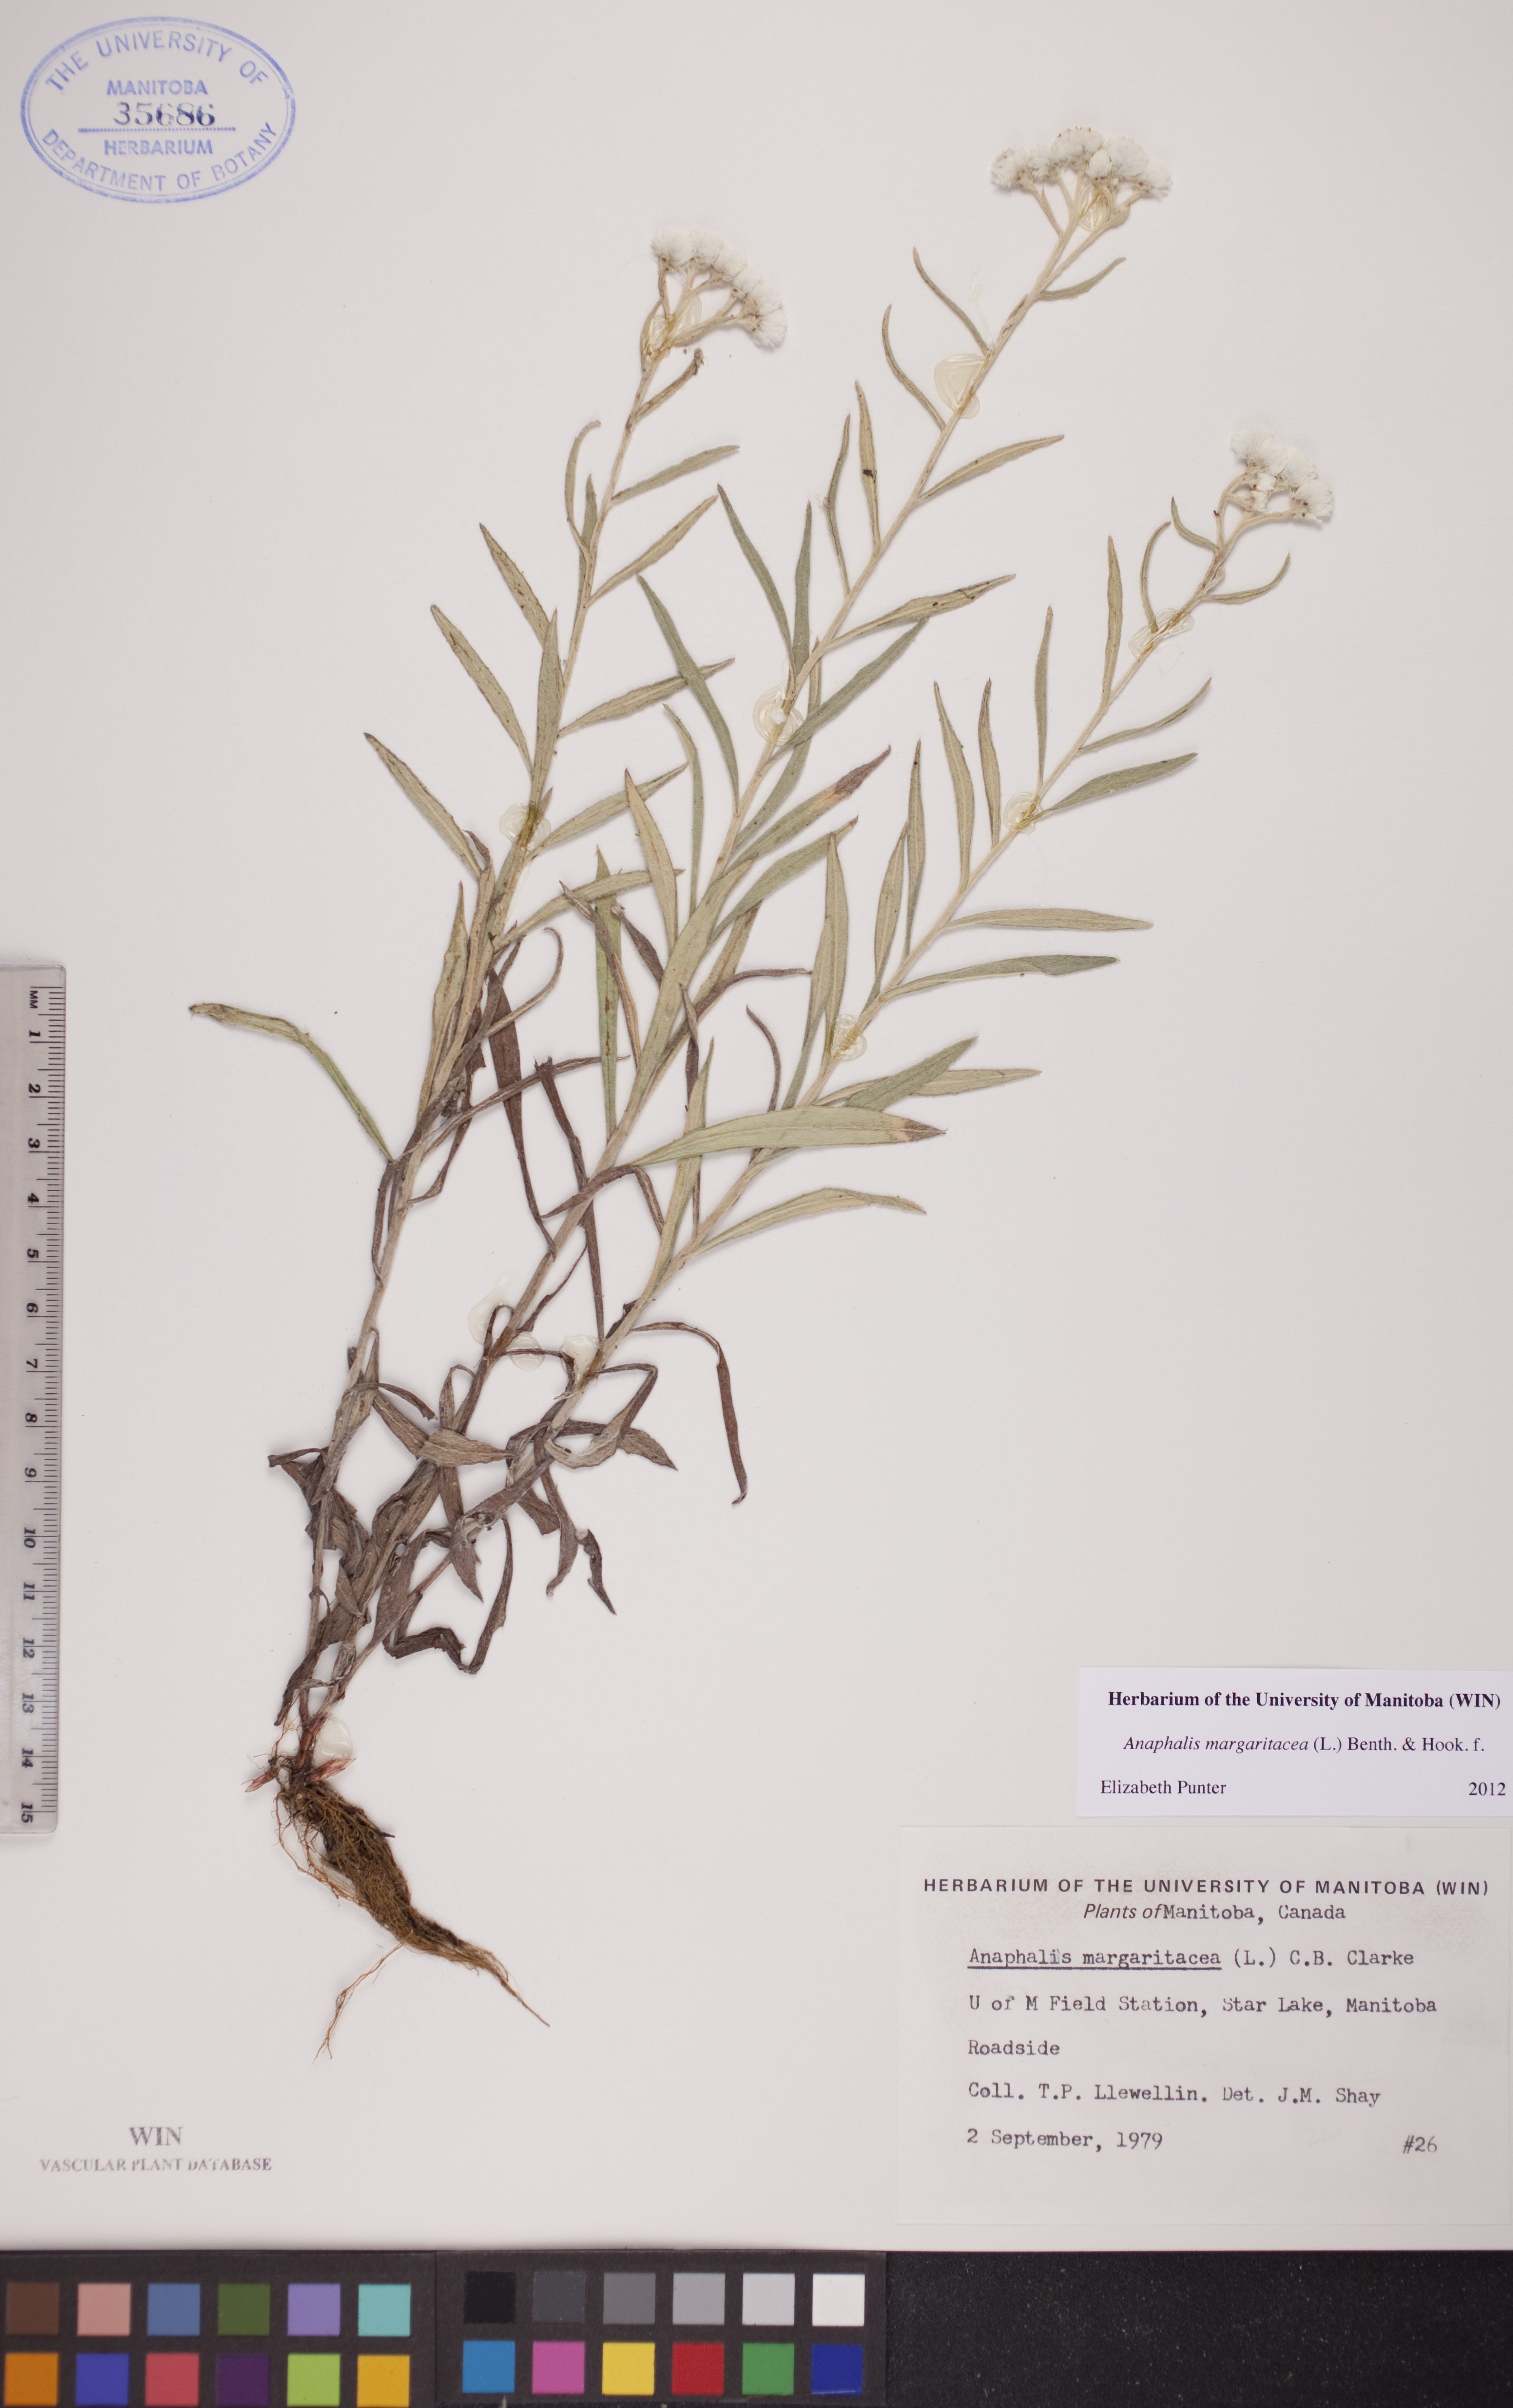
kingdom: Plantae
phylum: Tracheophyta
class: Magnoliopsida
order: Asterales
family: Asteraceae
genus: Anaphalis
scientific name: Anaphalis margaritacea
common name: Pearly everlasting
